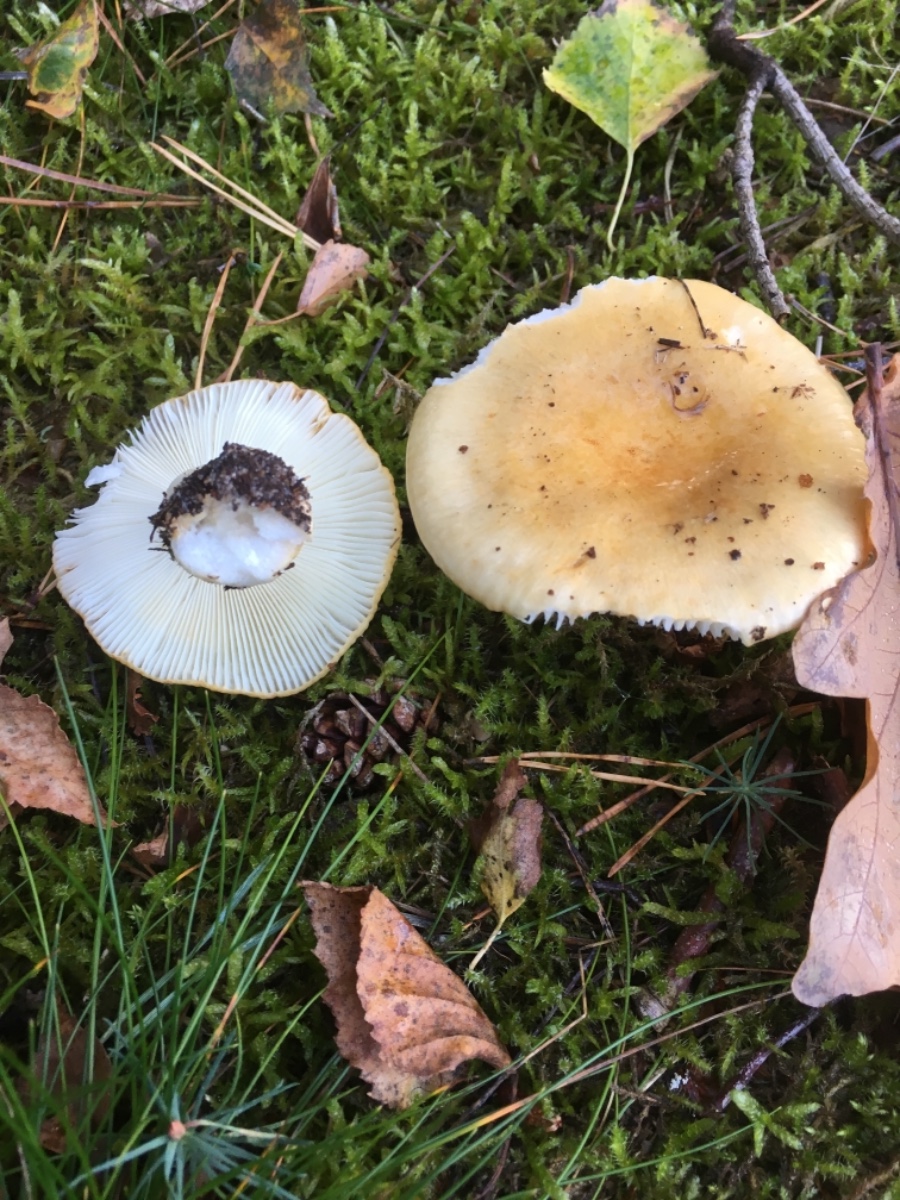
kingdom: Fungi
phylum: Basidiomycota
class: Agaricomycetes
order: Russulales
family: Russulaceae
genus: Russula
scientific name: Russula ochroleuca
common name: okkergul skørhat
